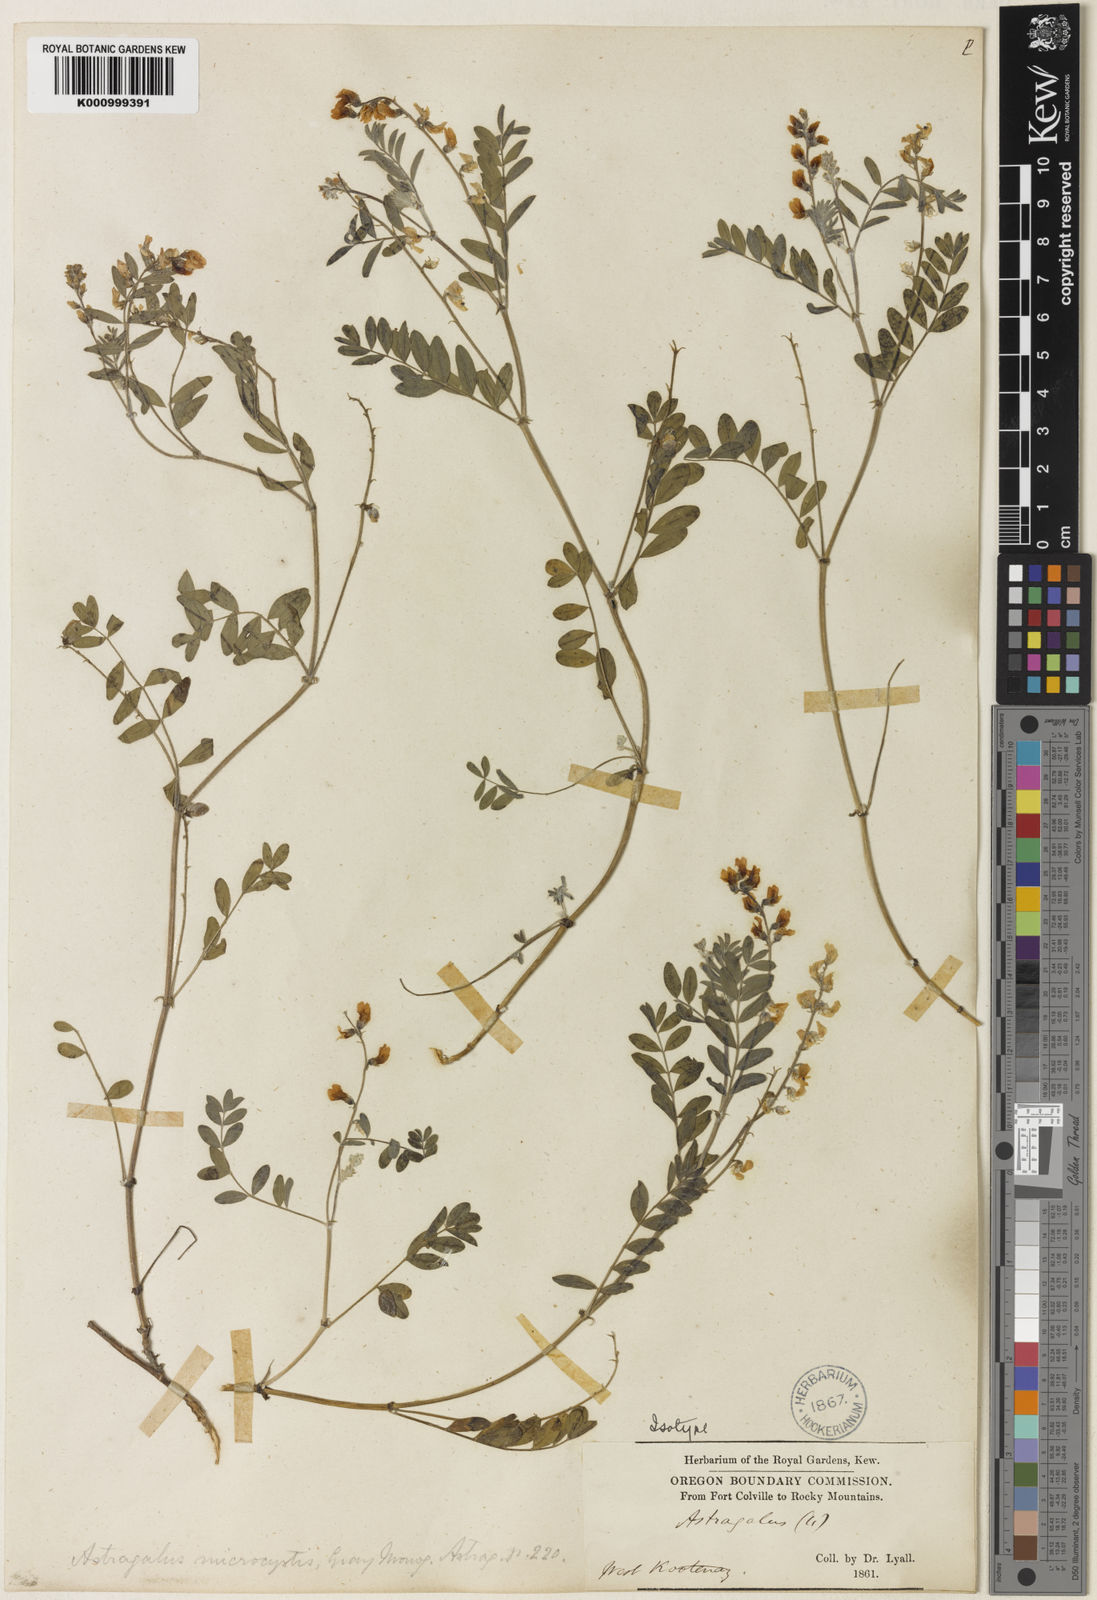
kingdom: Plantae
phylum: Tracheophyta
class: Magnoliopsida
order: Fabales
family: Fabaceae
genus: Astragalus
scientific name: Astragalus microcystis
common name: Dwarf milk-vetch
